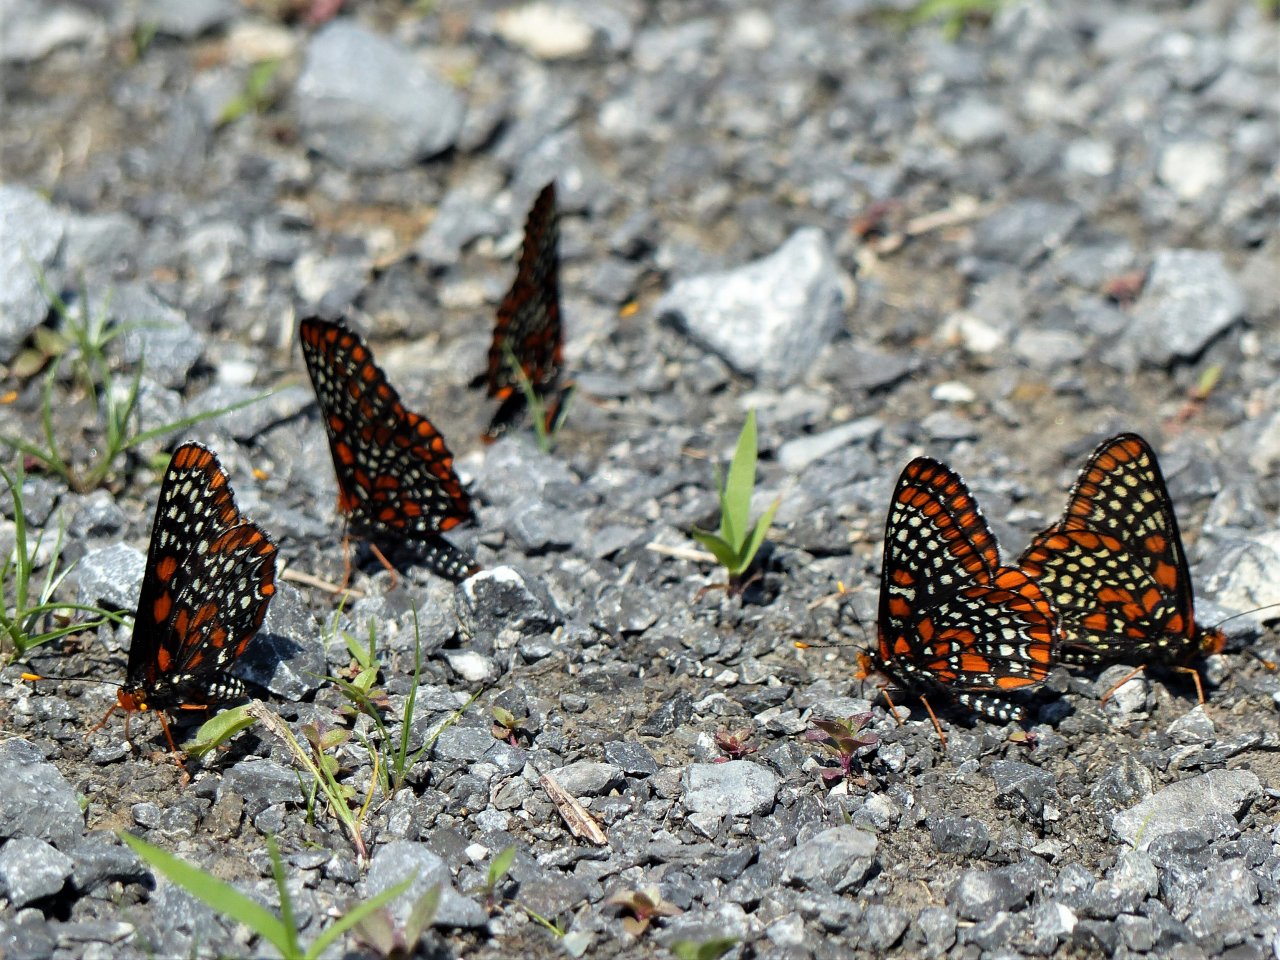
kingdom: Animalia
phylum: Arthropoda
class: Insecta
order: Lepidoptera
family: Nymphalidae
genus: Euphydryas
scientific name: Euphydryas phaeton
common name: Baltimore Checkerspot
